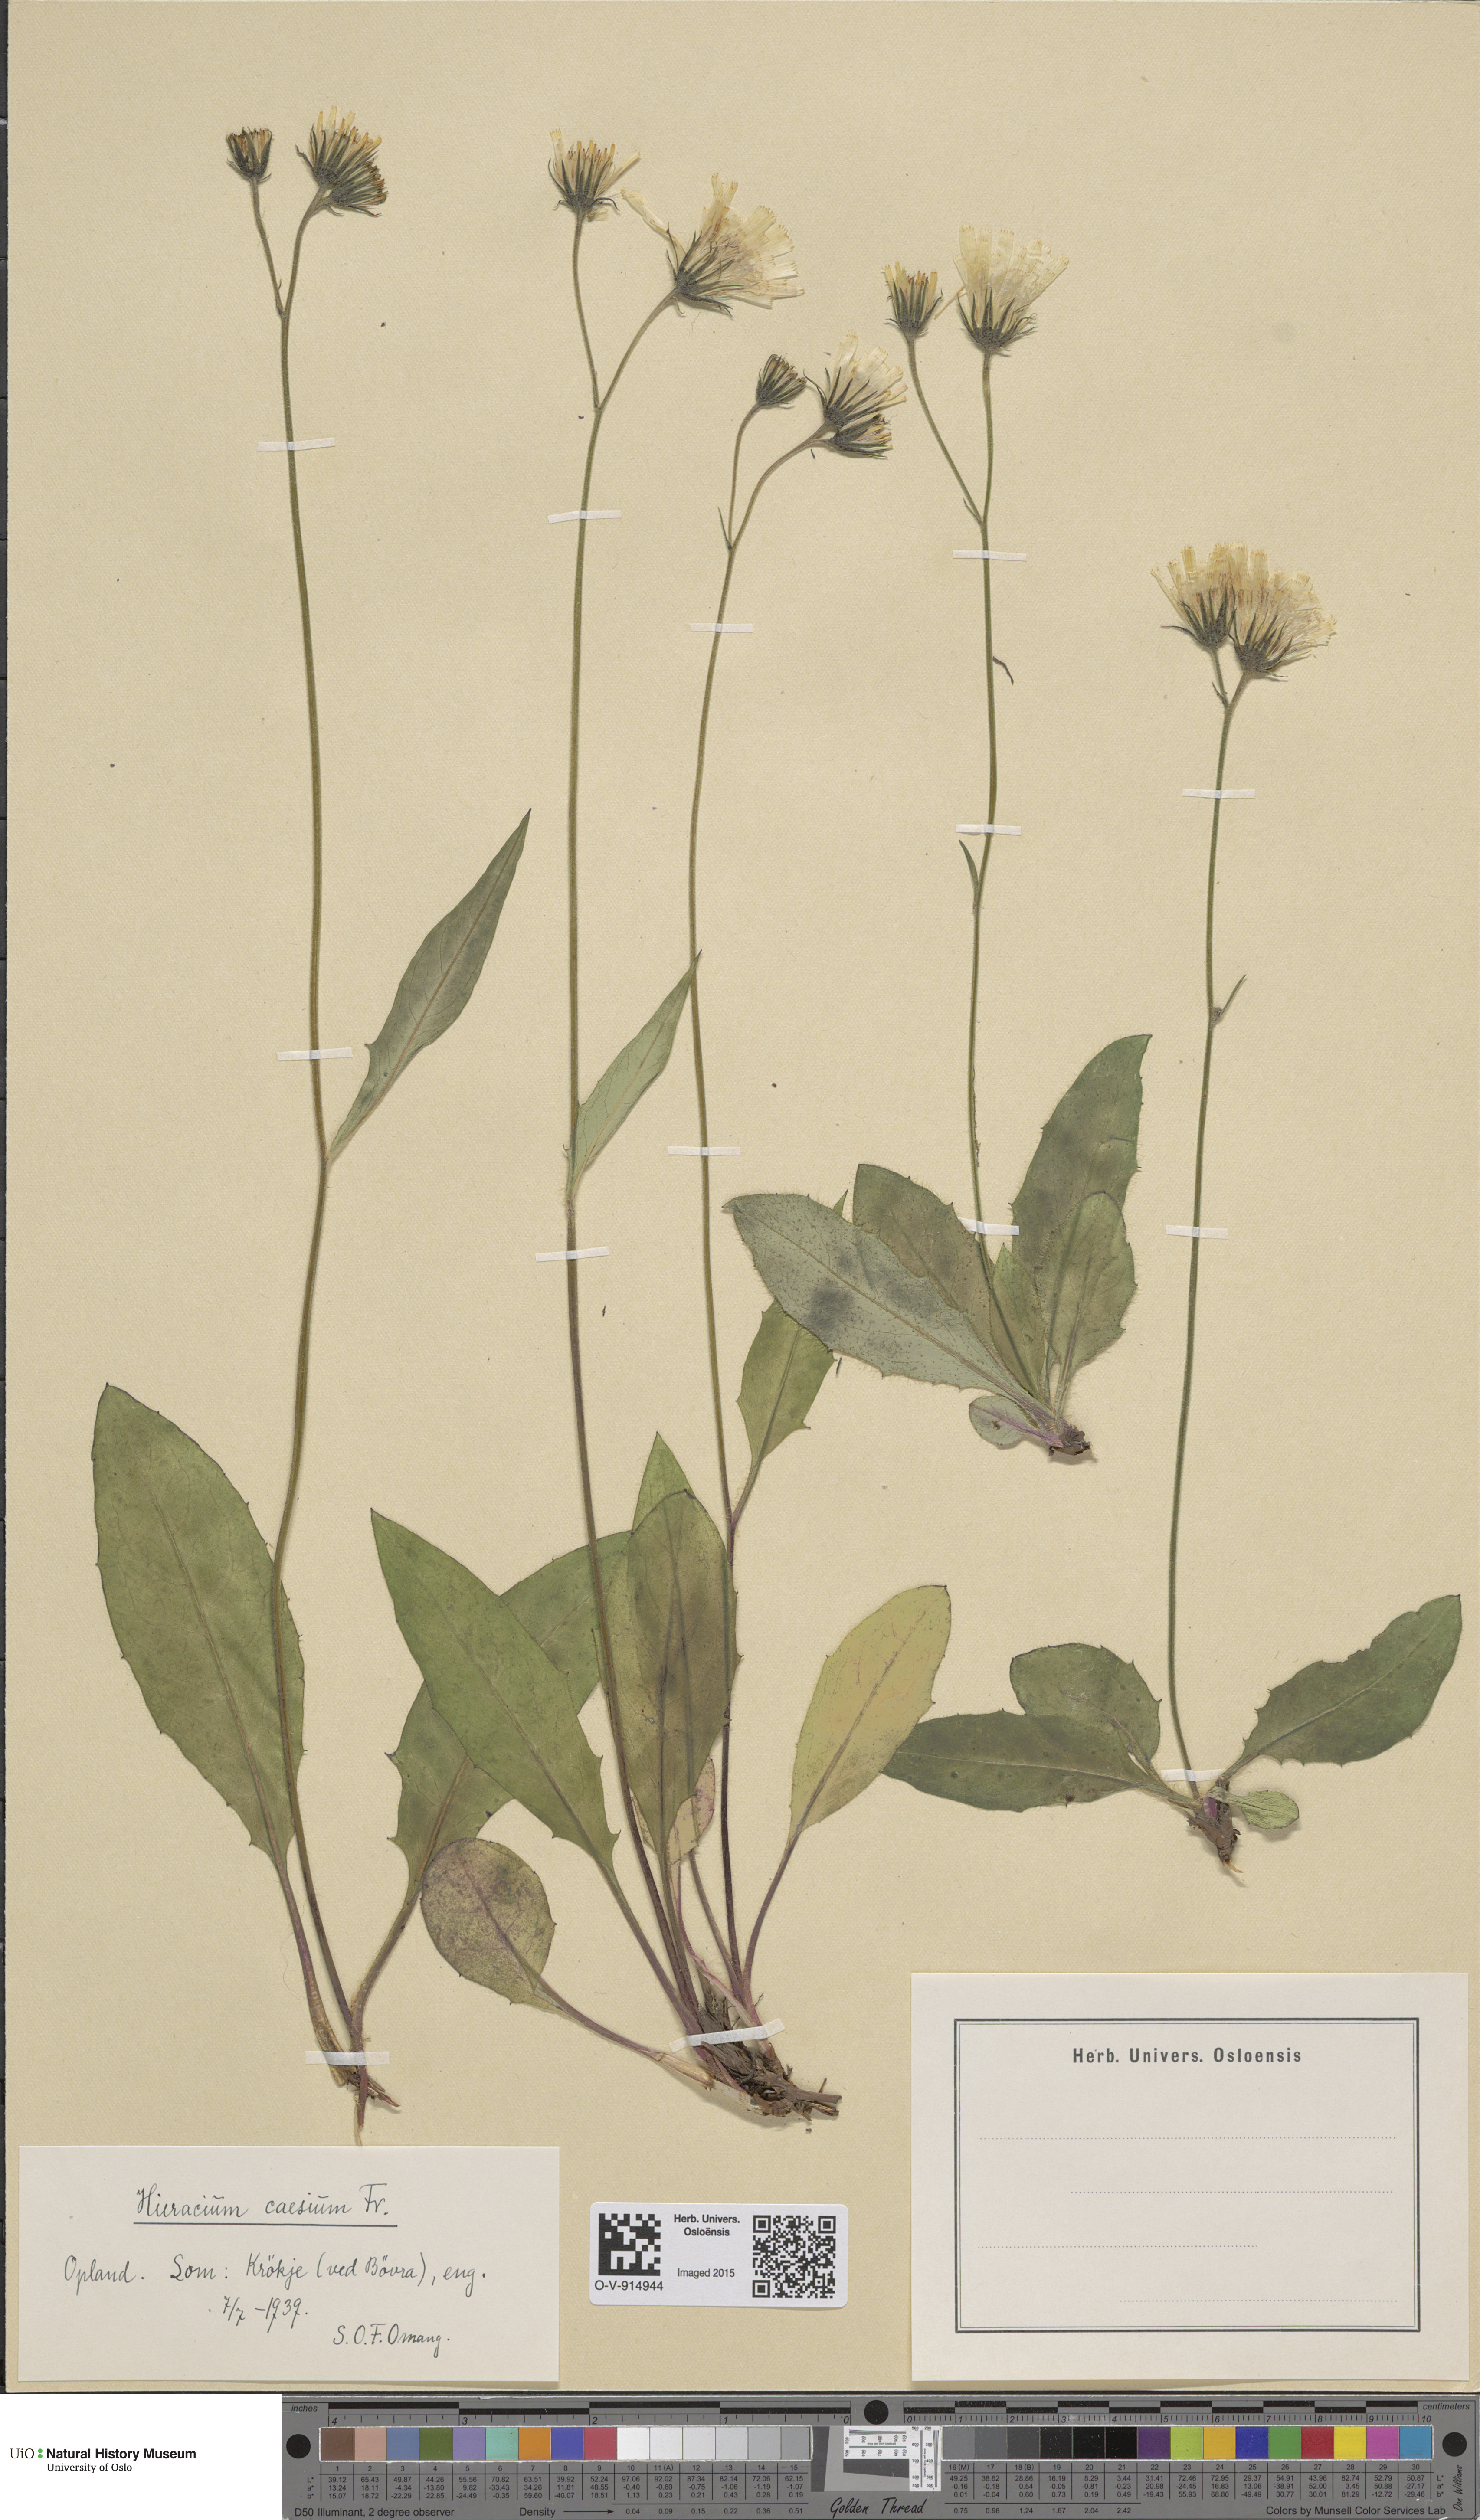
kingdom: Plantae
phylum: Tracheophyta
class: Magnoliopsida
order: Asterales
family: Asteraceae
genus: Hieracium
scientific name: Hieracium caesium
